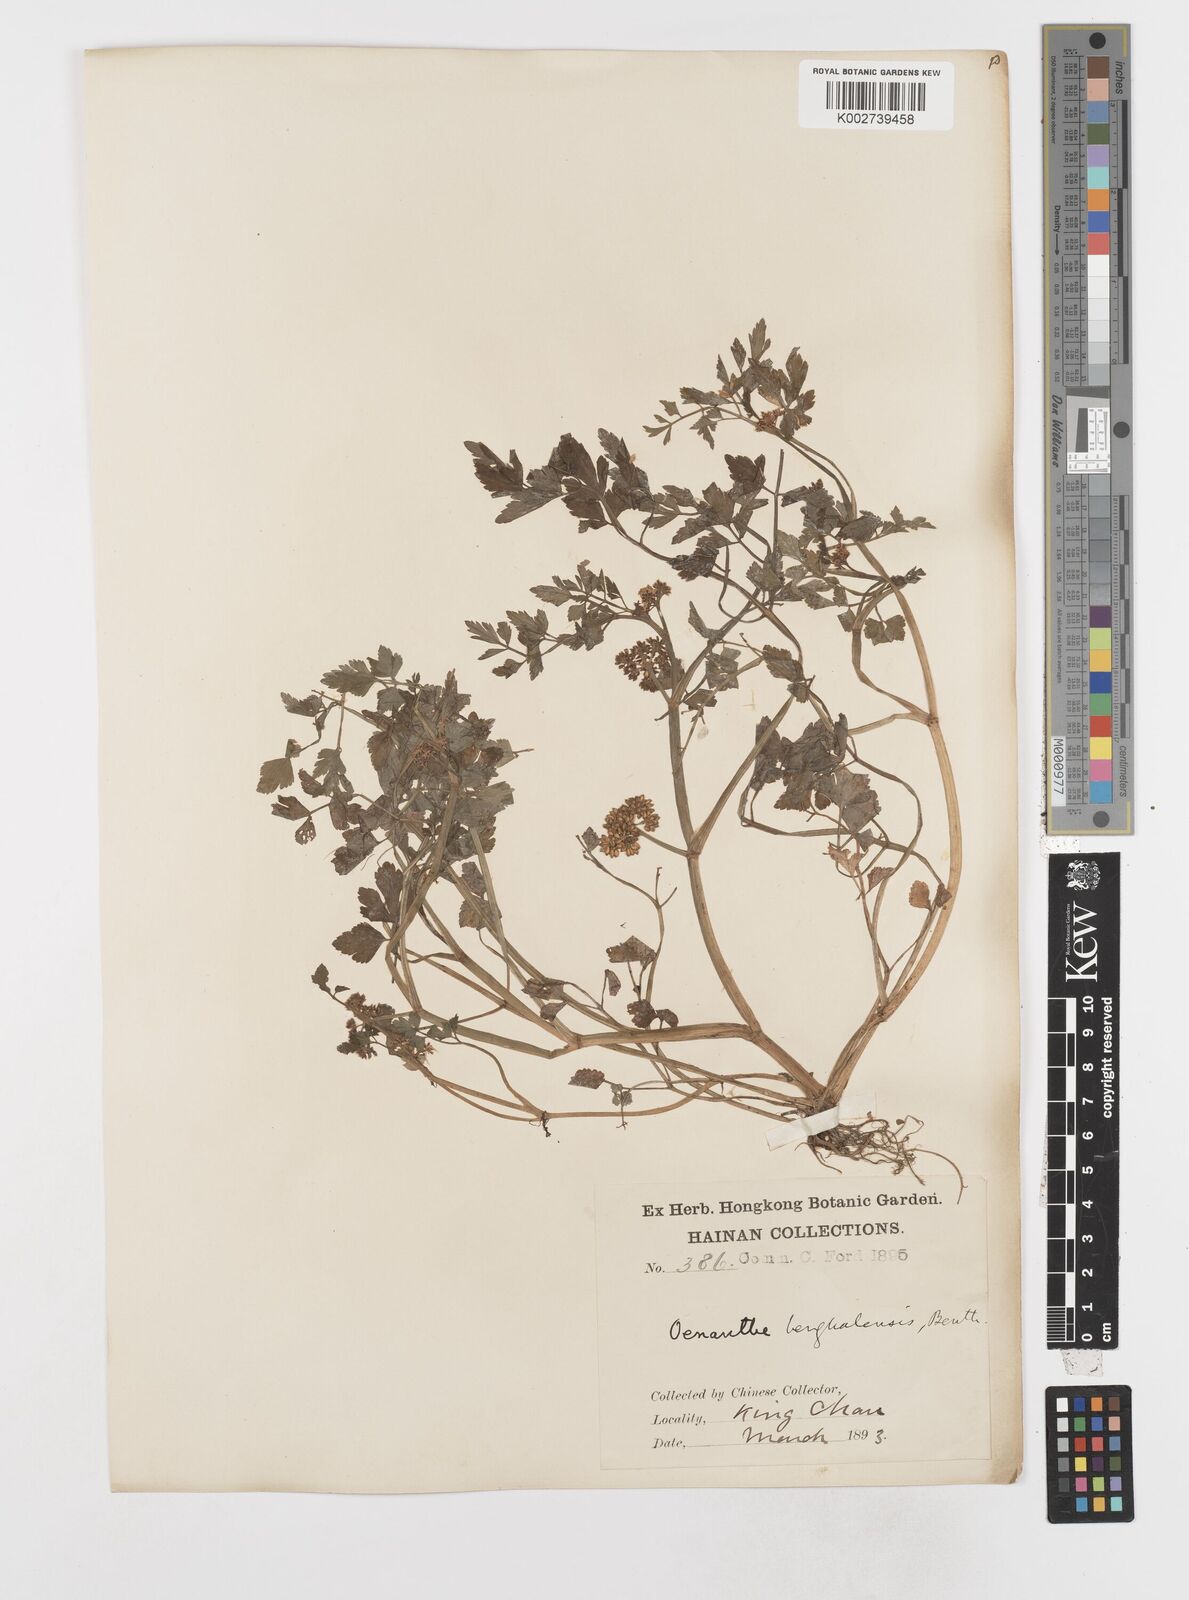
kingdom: Plantae
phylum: Tracheophyta
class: Magnoliopsida
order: Apiales
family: Apiaceae
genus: Oenanthe
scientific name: Oenanthe javanica
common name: Java water-dropwort
